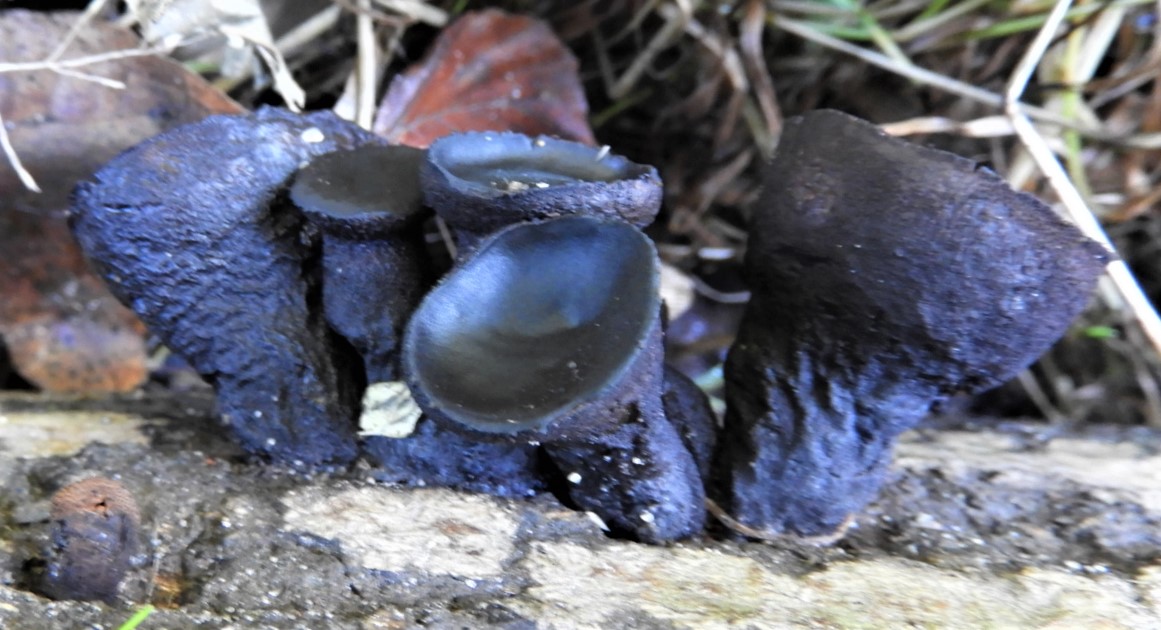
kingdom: Fungi
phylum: Ascomycota
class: Leotiomycetes
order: Phacidiales
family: Phacidiaceae
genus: Bulgaria
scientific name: Bulgaria inquinans
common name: afsmittende topsvamp
